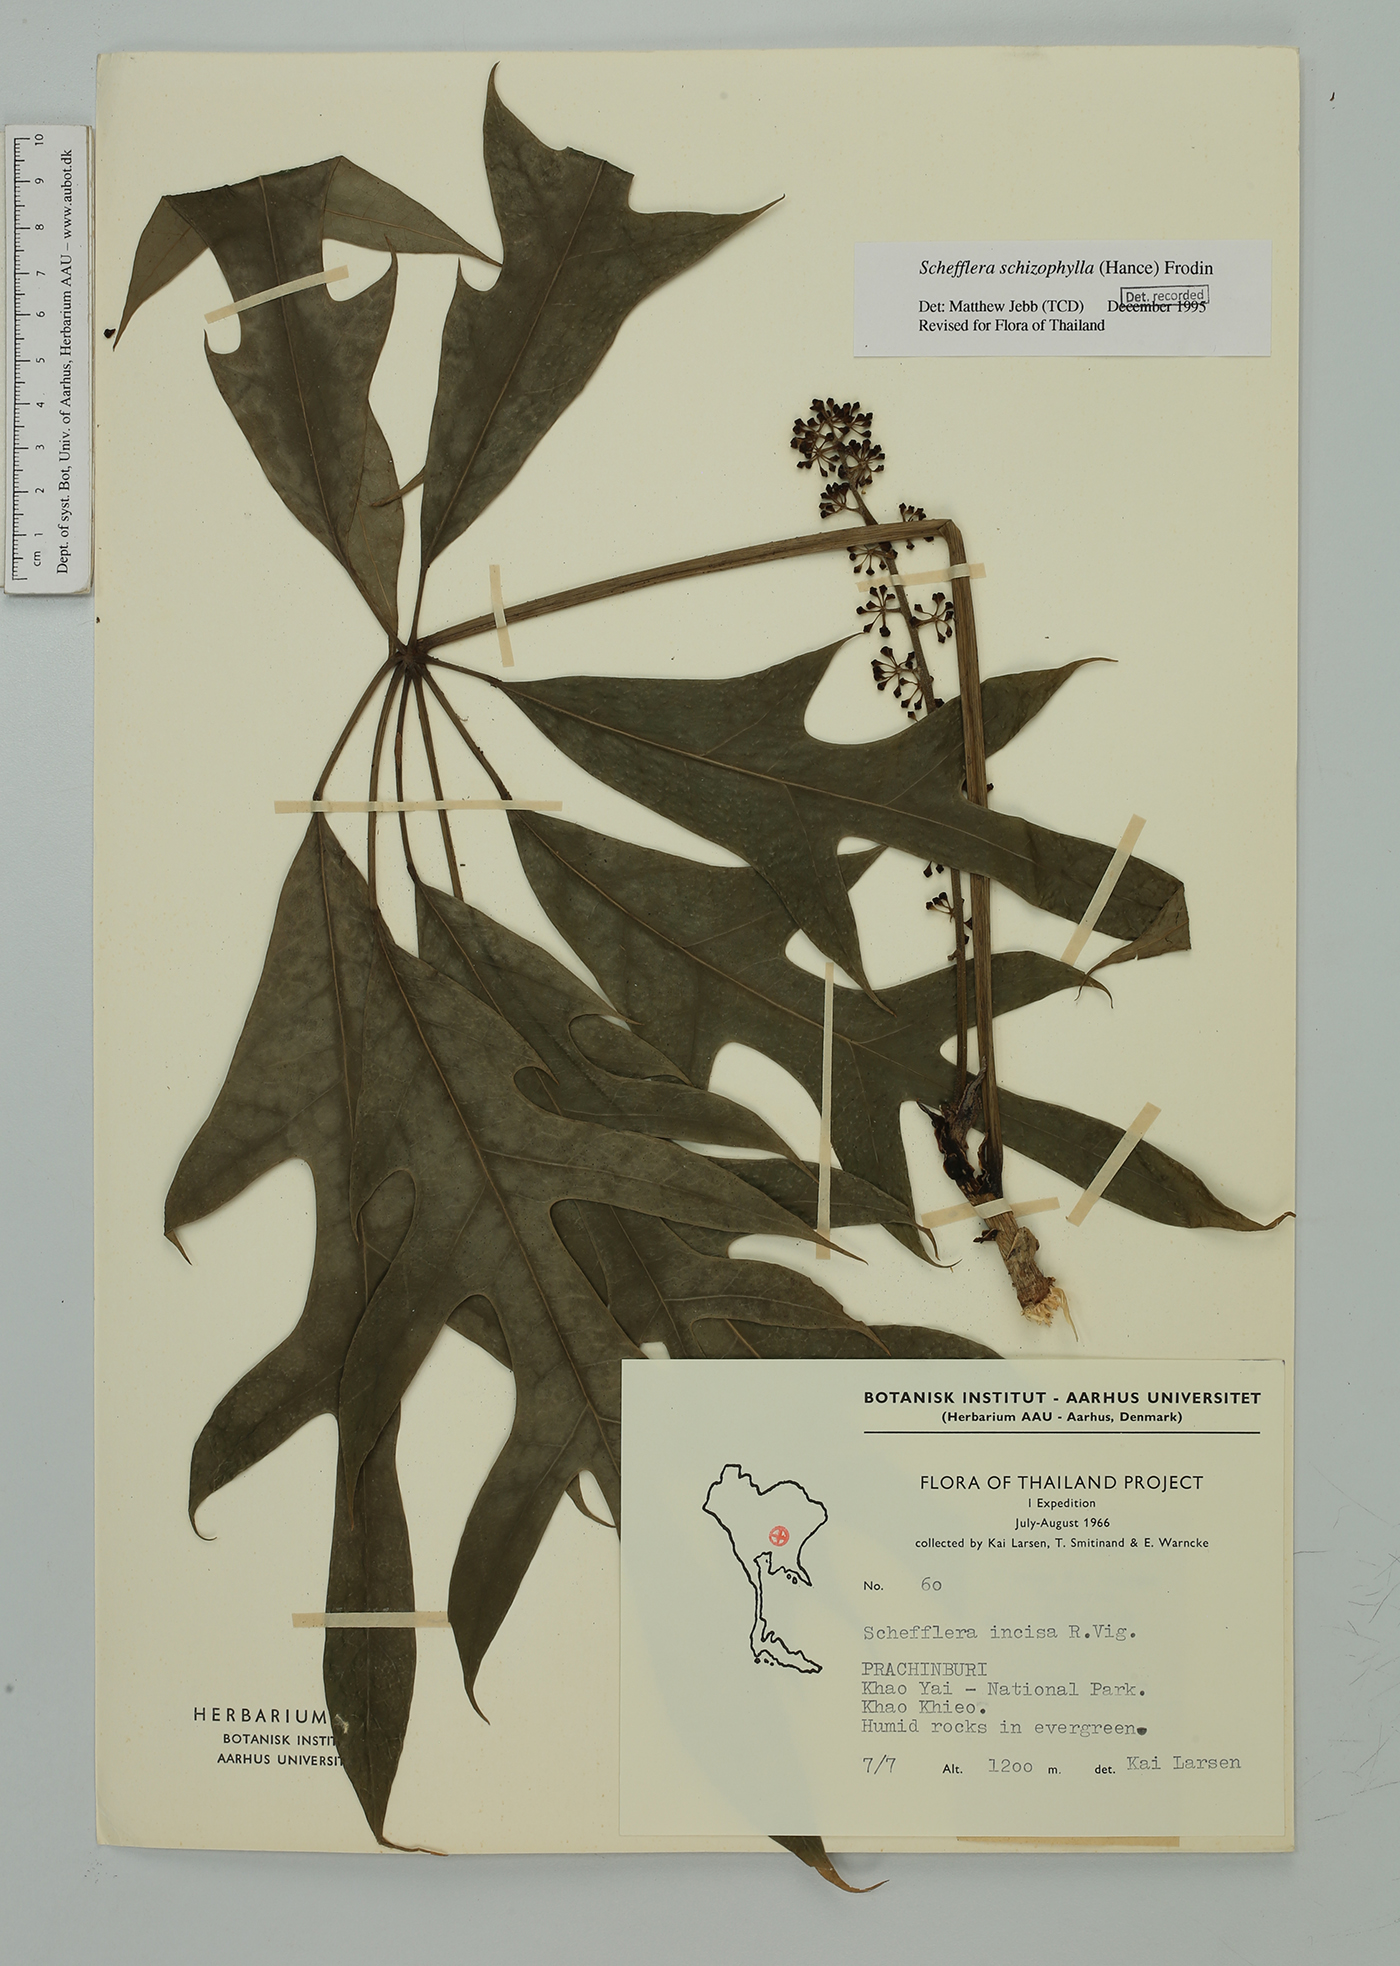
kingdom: Plantae
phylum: Tracheophyta
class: Magnoliopsida
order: Apiales
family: Araliaceae
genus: Heptapleurum
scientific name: Heptapleurum schizophyllum
